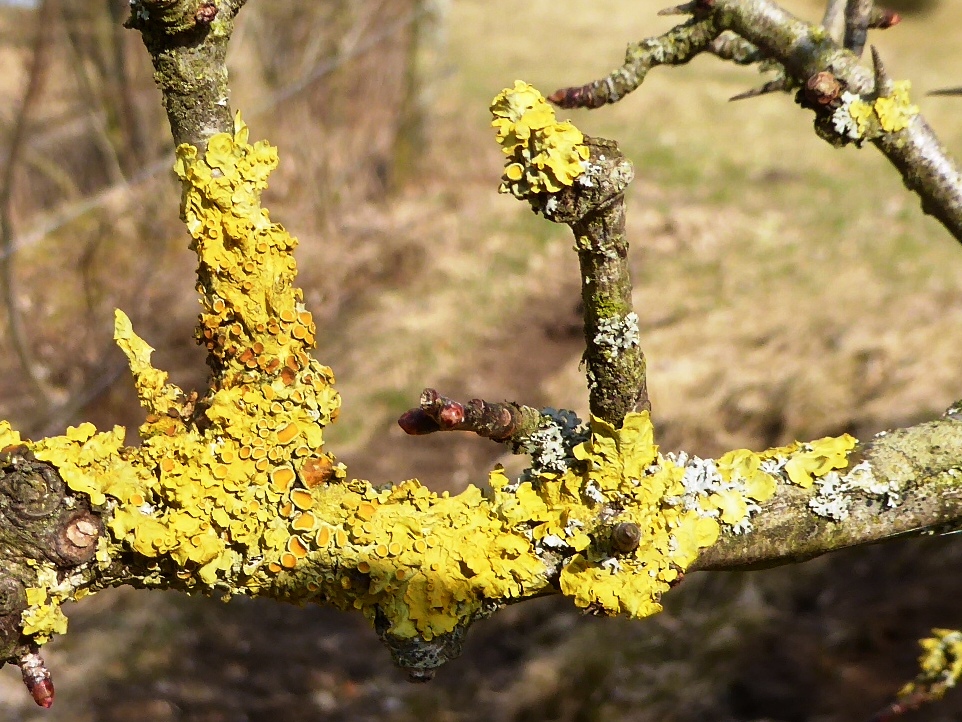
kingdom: Fungi
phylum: Ascomycota
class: Lecanoromycetes
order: Teloschistales
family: Teloschistaceae
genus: Xanthoria
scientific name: Xanthoria parietina
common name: almindelig væggelav
